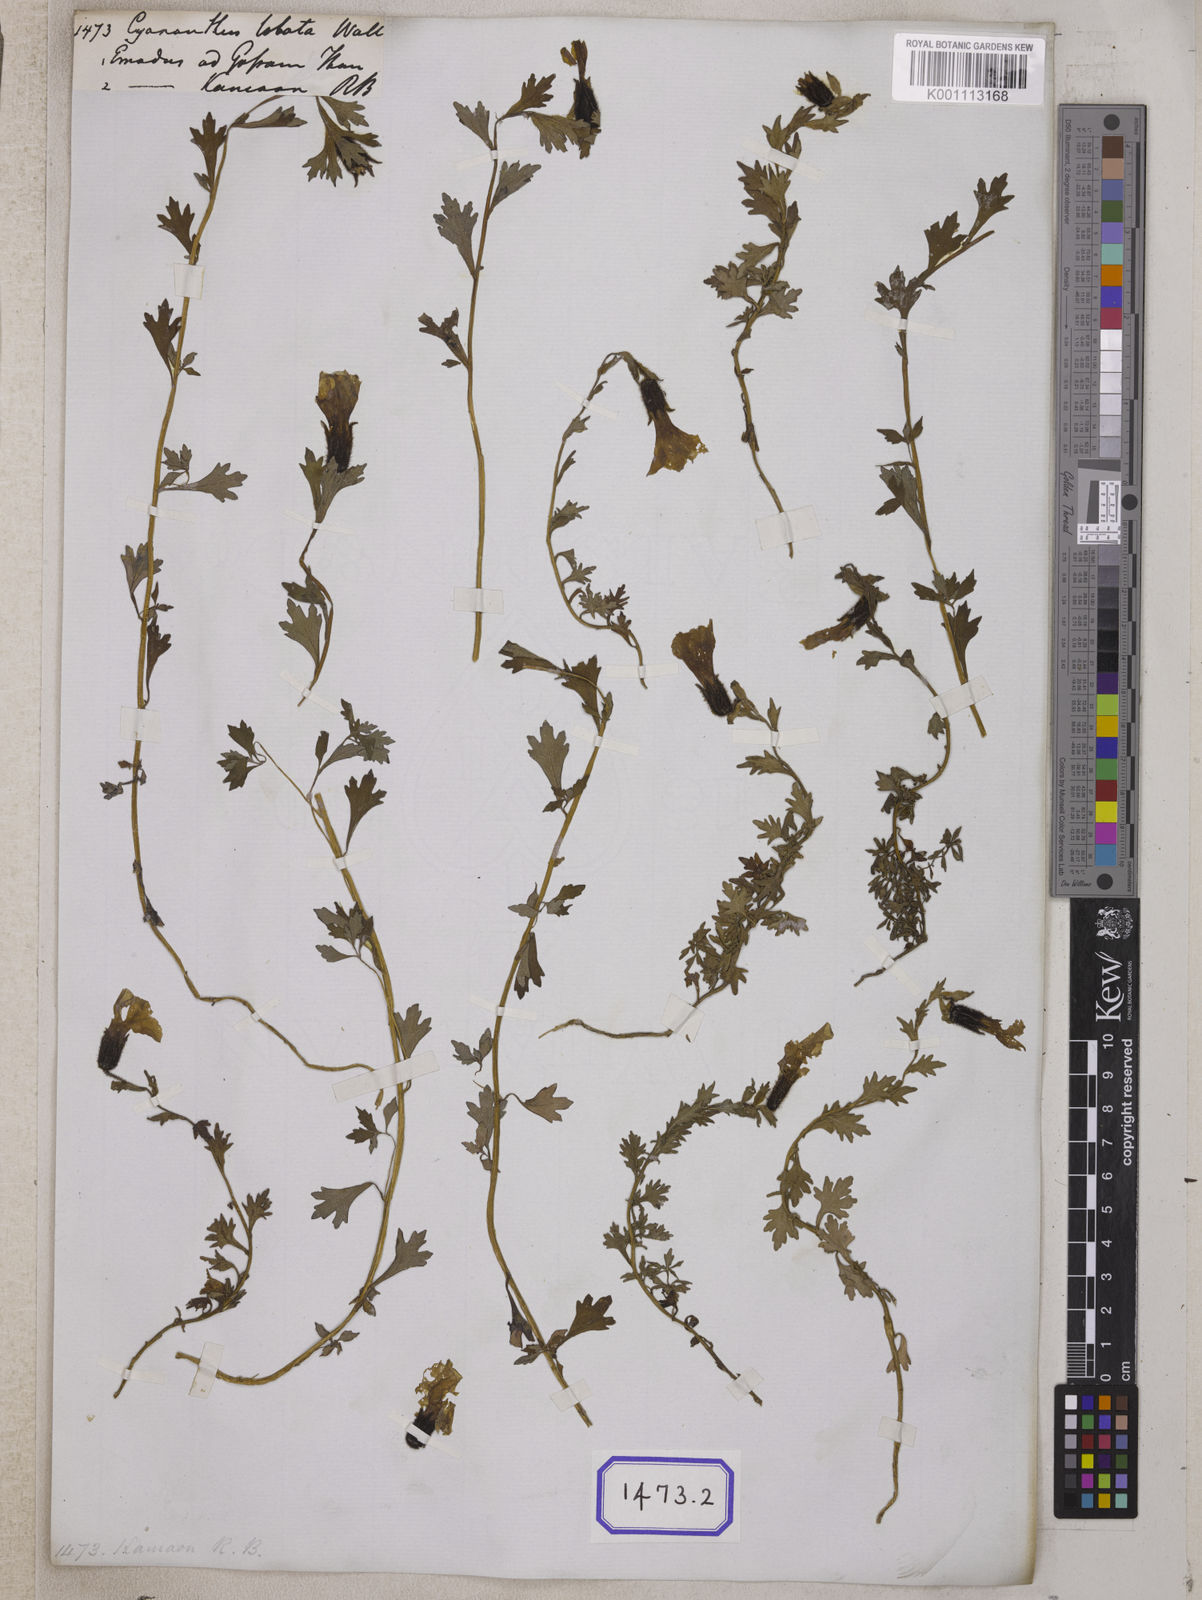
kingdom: Plantae
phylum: Tracheophyta
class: Magnoliopsida
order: Asterales
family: Campanulaceae
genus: Cyananthus
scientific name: Cyananthus
